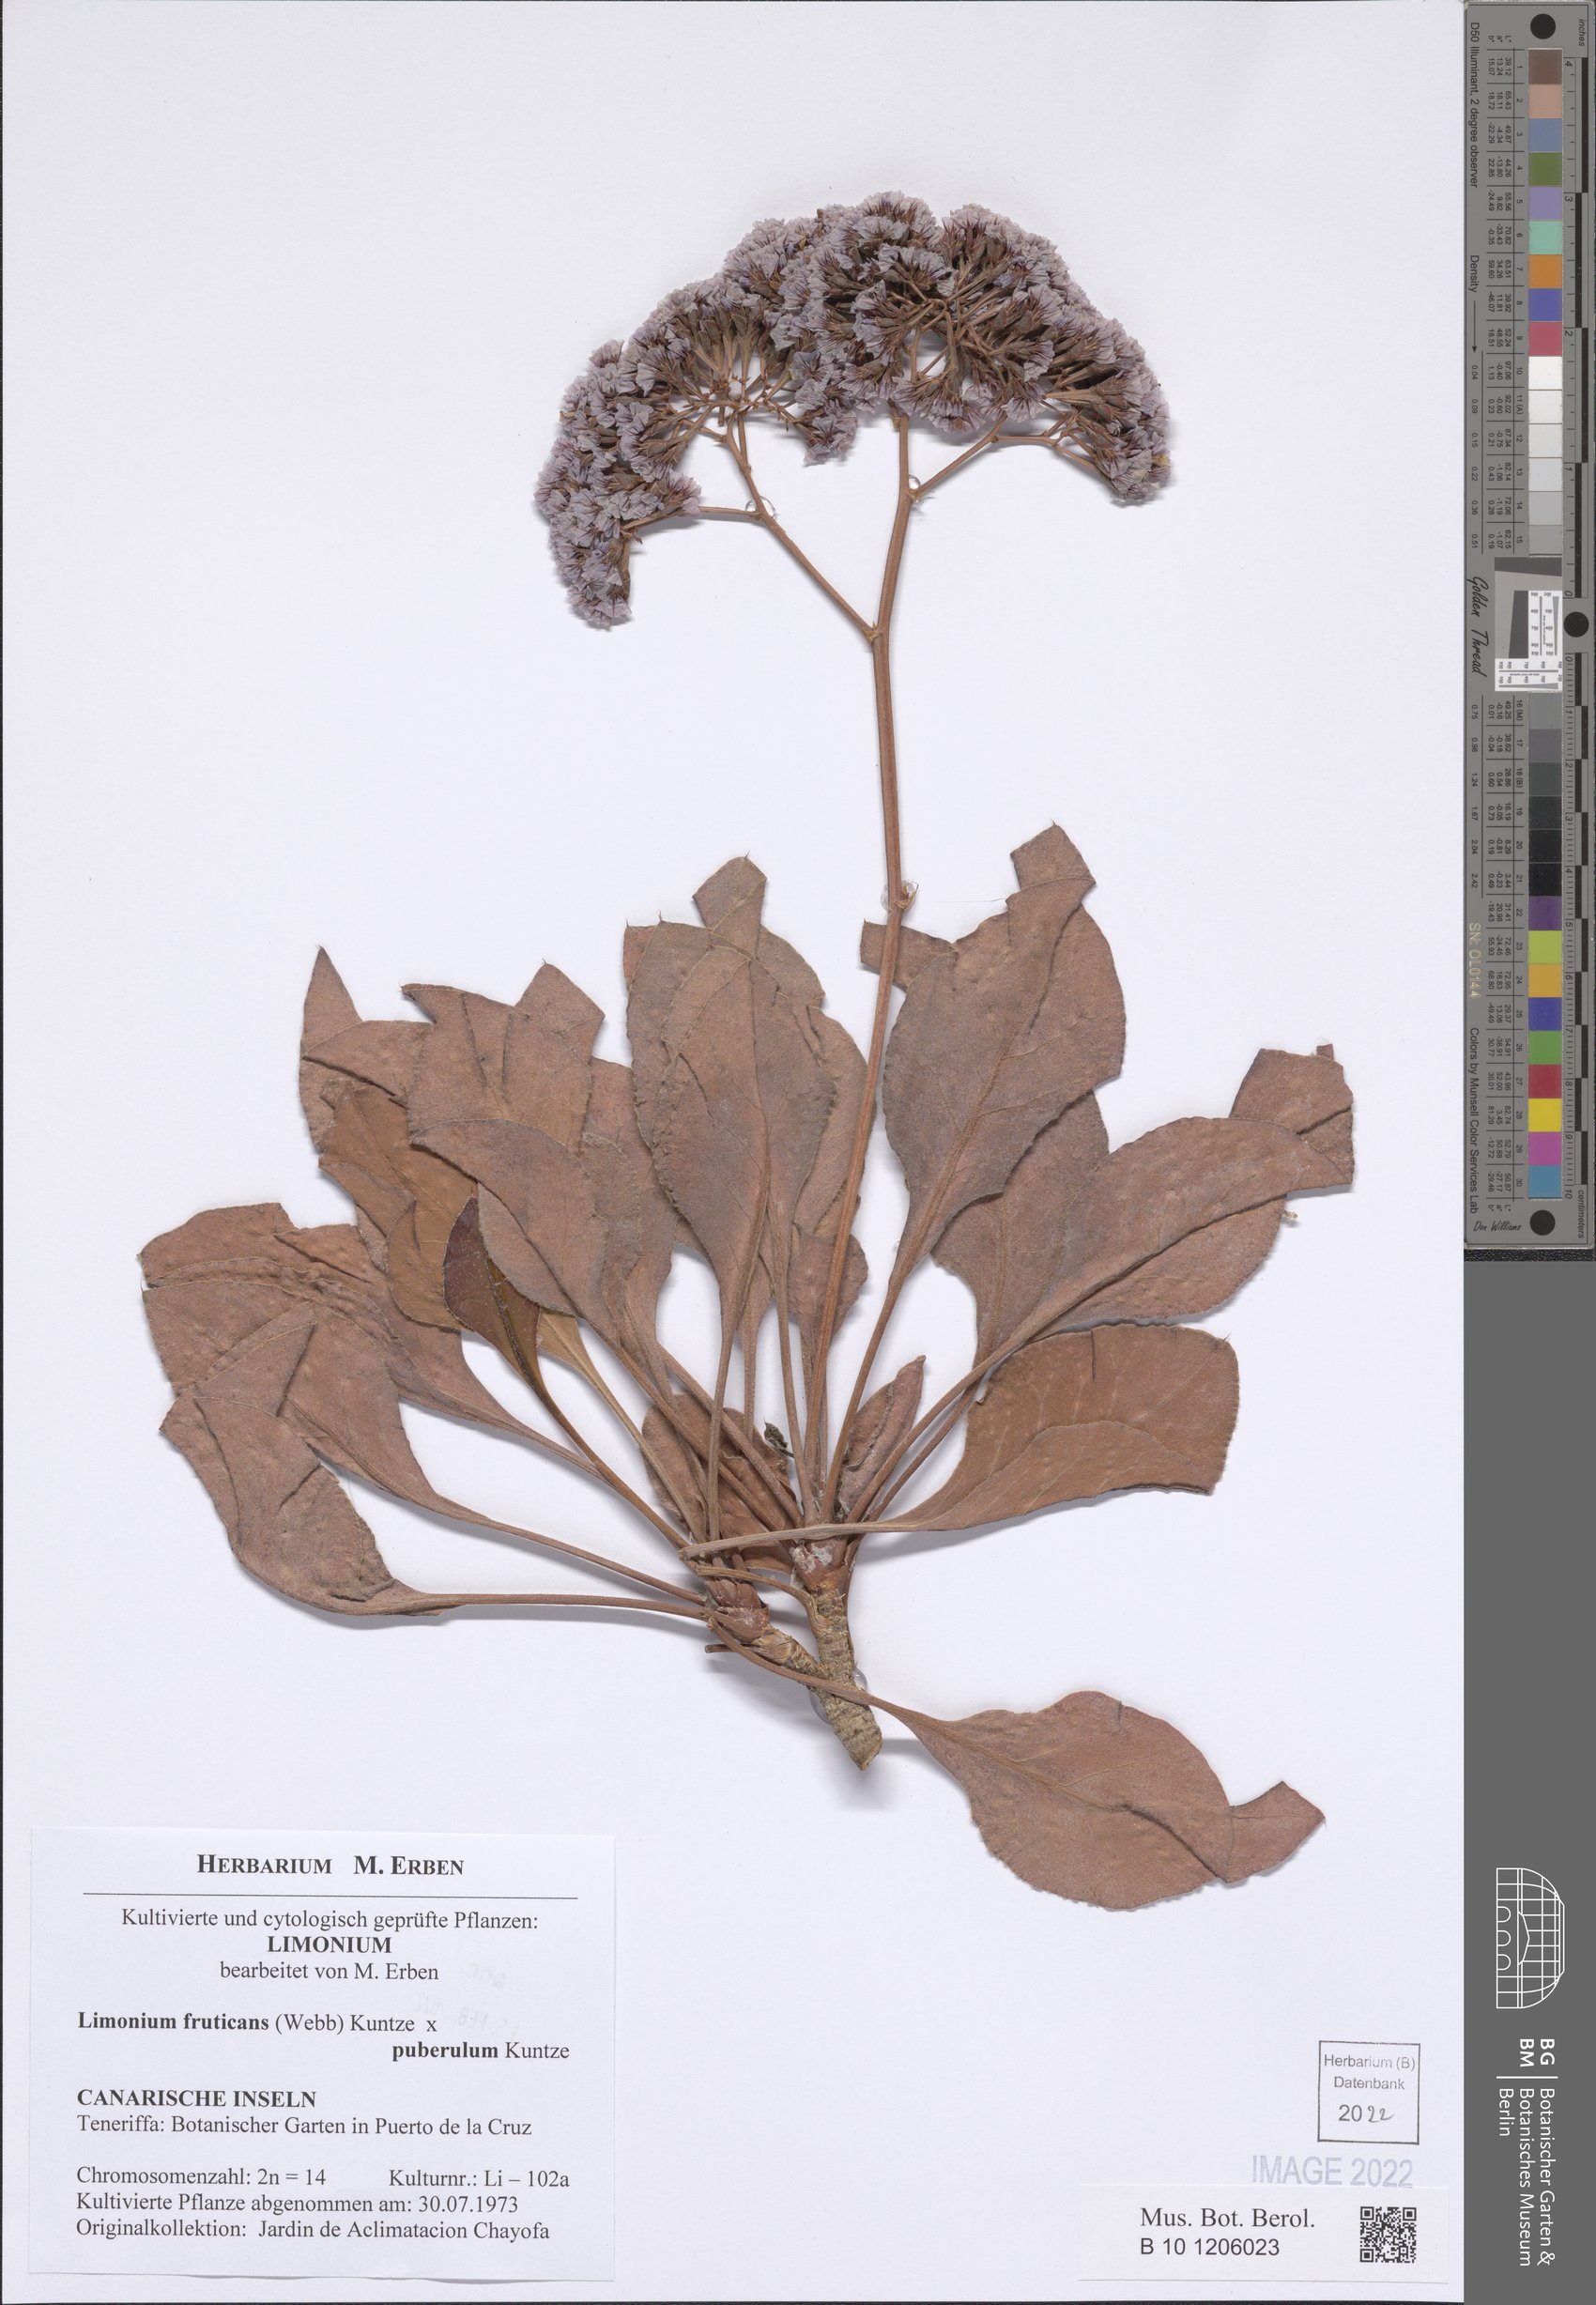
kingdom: Plantae
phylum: Tracheophyta
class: Magnoliopsida
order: Caryophyllales
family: Plumbaginaceae
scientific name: Plumbaginaceae
